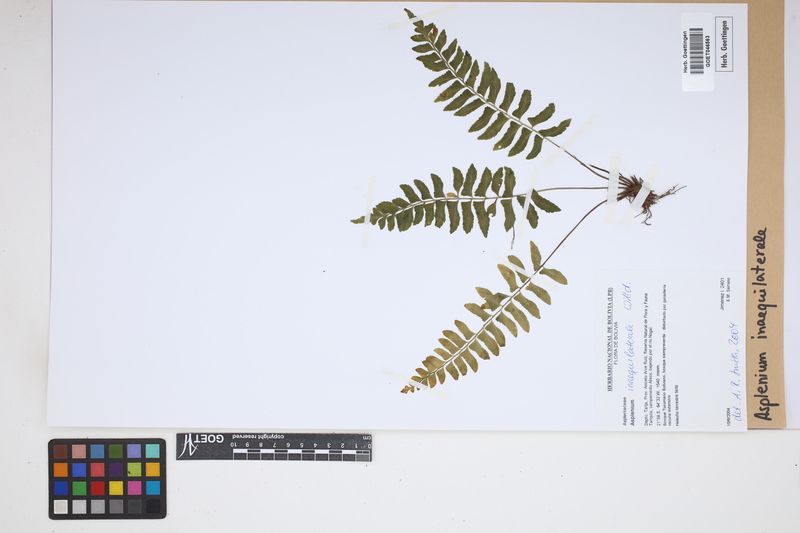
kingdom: Plantae
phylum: Tracheophyta
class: Polypodiopsida
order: Polypodiales
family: Aspleniaceae
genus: Asplenium
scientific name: Asplenium inaequilaterale
